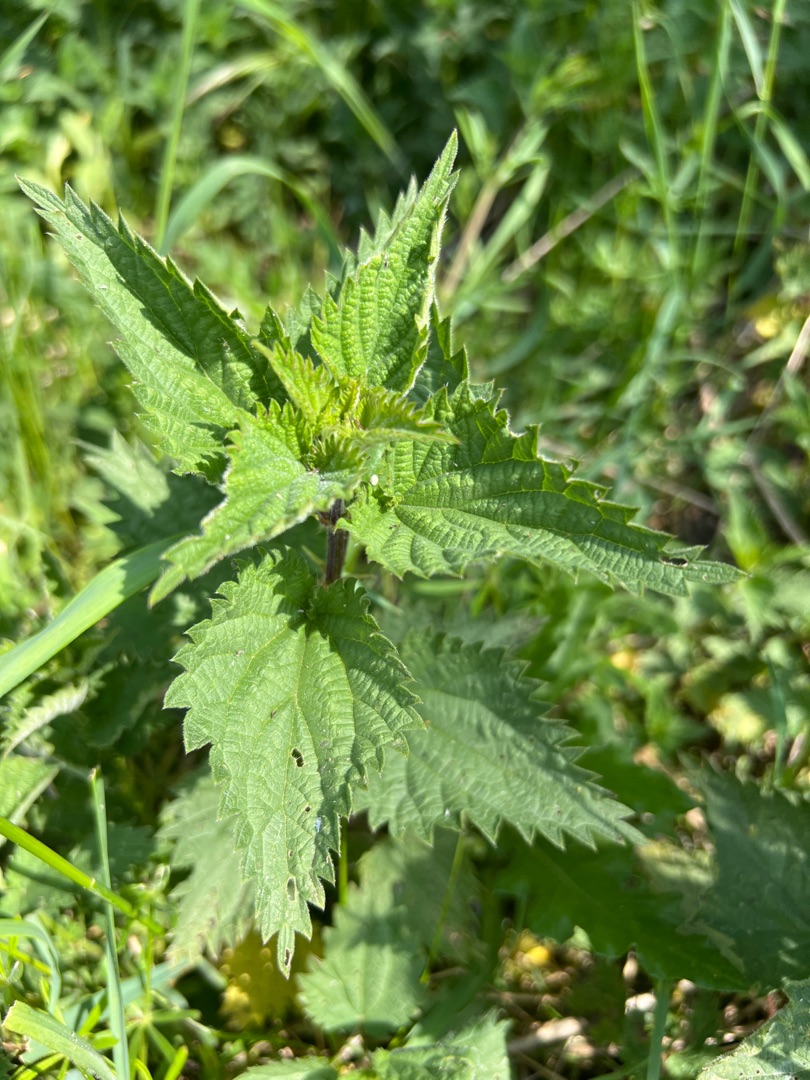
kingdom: Plantae
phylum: Tracheophyta
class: Magnoliopsida
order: Rosales
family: Urticaceae
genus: Urtica
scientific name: Urtica dioica
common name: Stor nælde
